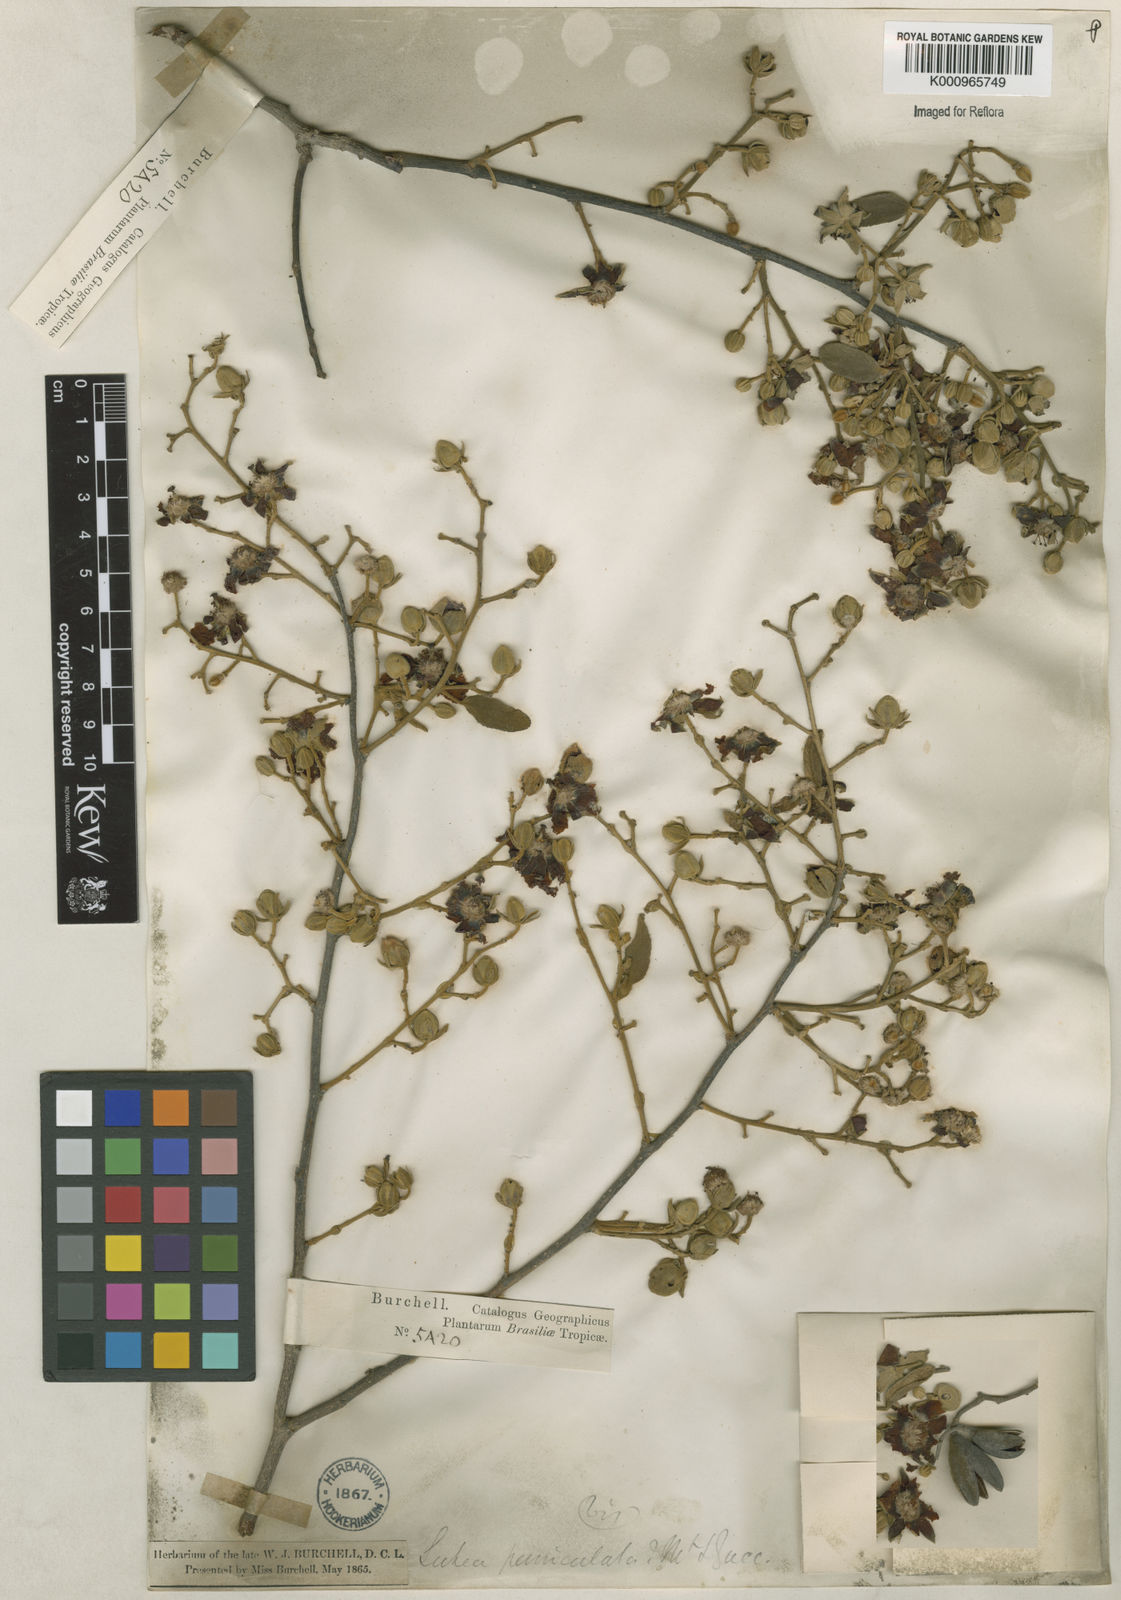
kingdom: Plantae
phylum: Tracheophyta
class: Magnoliopsida
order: Malvales
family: Malvaceae
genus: Luehea
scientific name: Luehea paniculata
